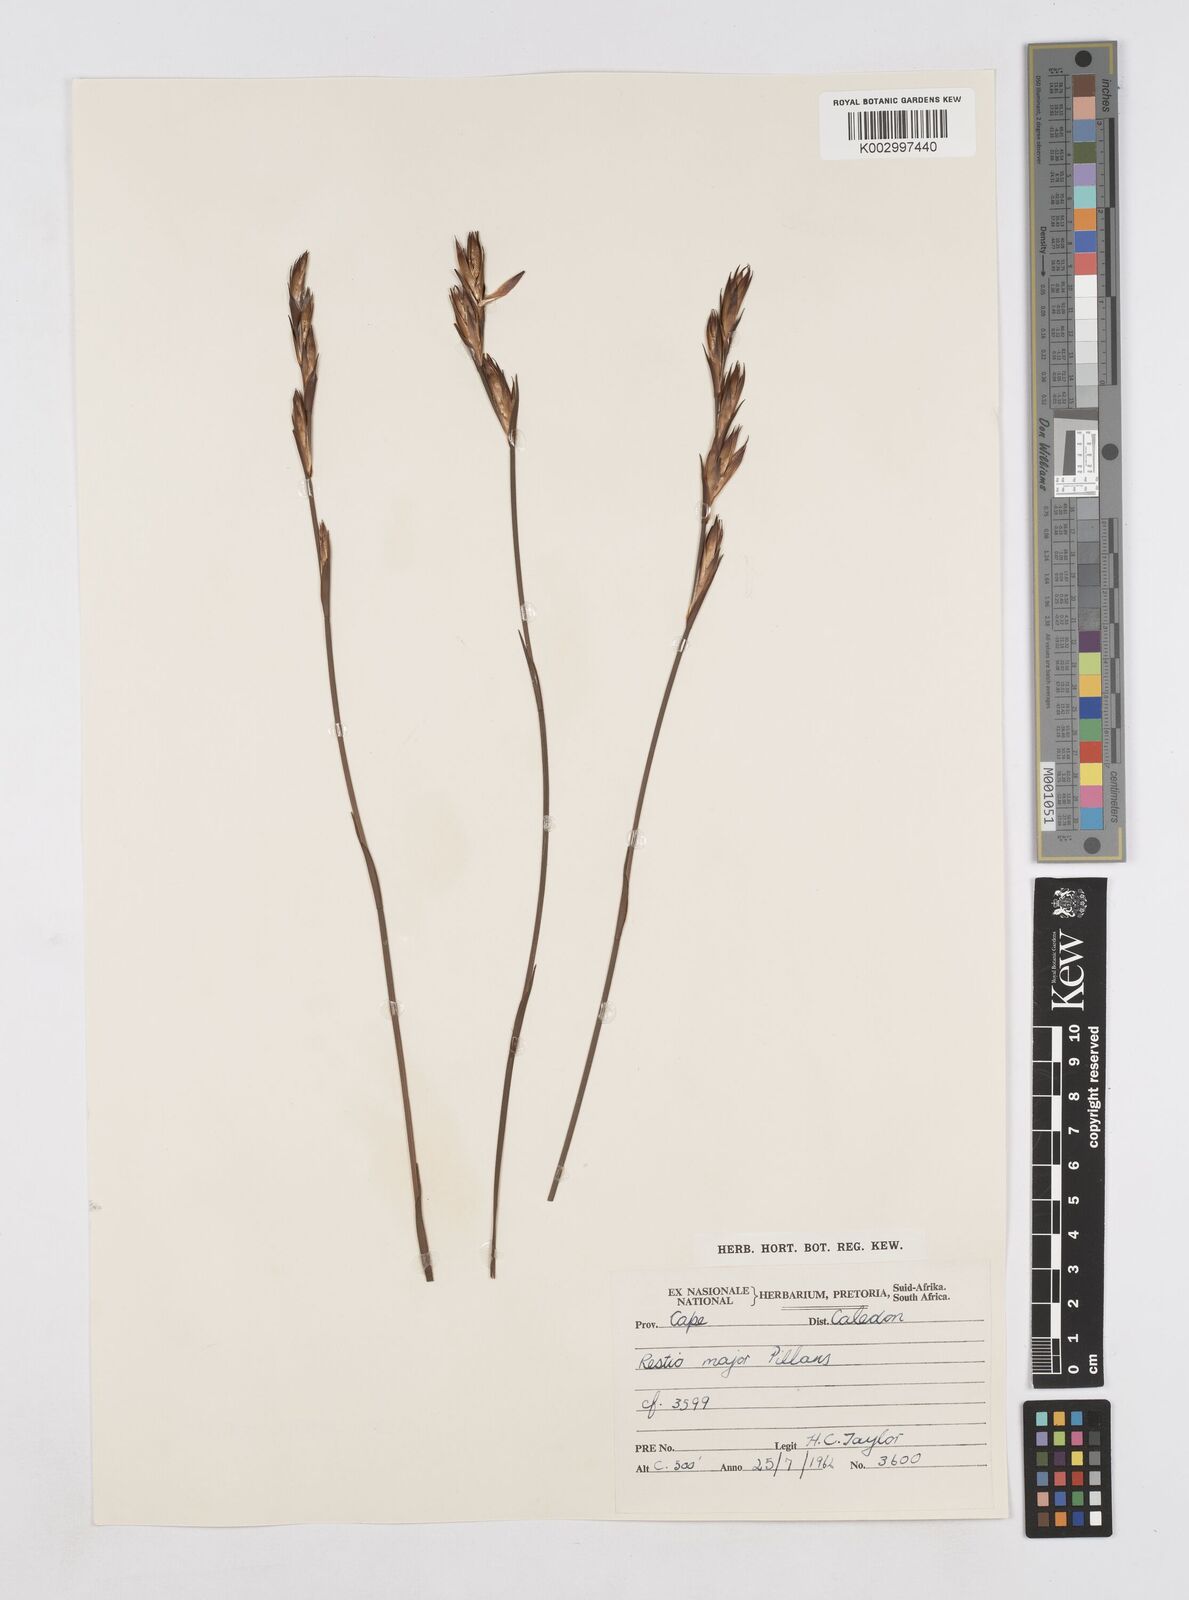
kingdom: Plantae
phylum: Tracheophyta
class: Liliopsida
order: Poales
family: Restionaceae
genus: Platycaulos
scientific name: Platycaulos major
